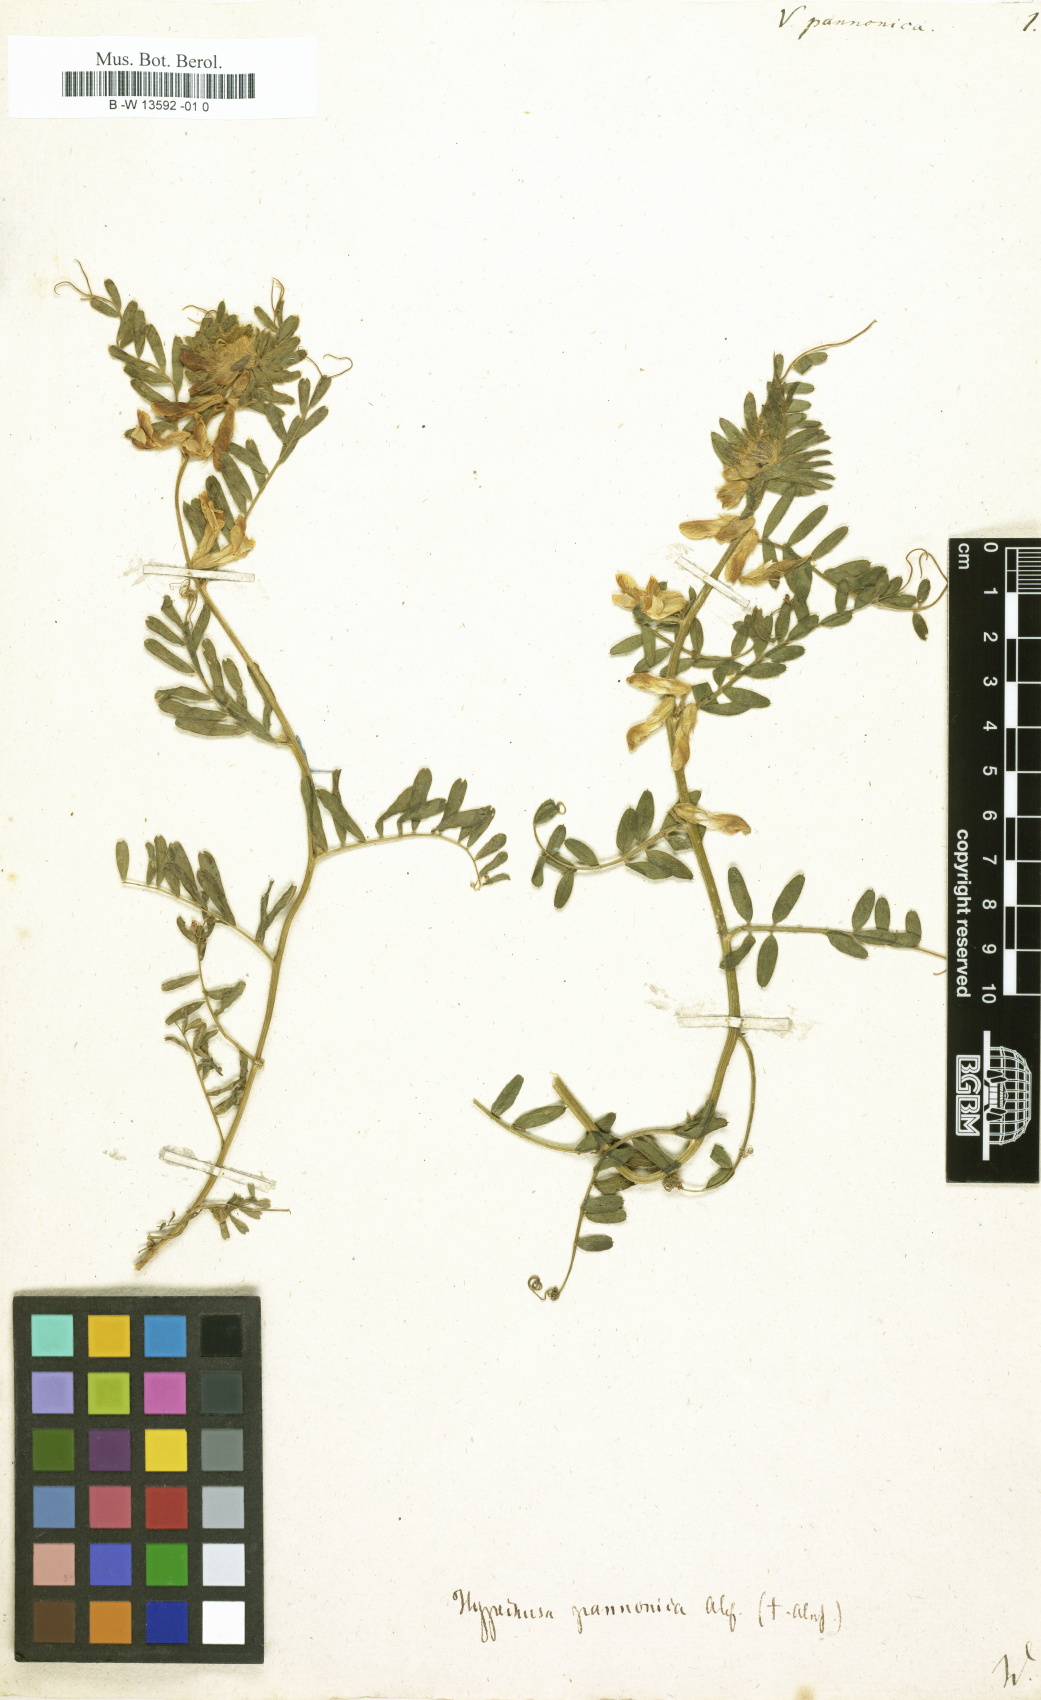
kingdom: Plantae
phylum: Tracheophyta
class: Magnoliopsida
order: Fabales
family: Fabaceae
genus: Vicia
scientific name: Vicia pannonica
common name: Hungarian vetch
